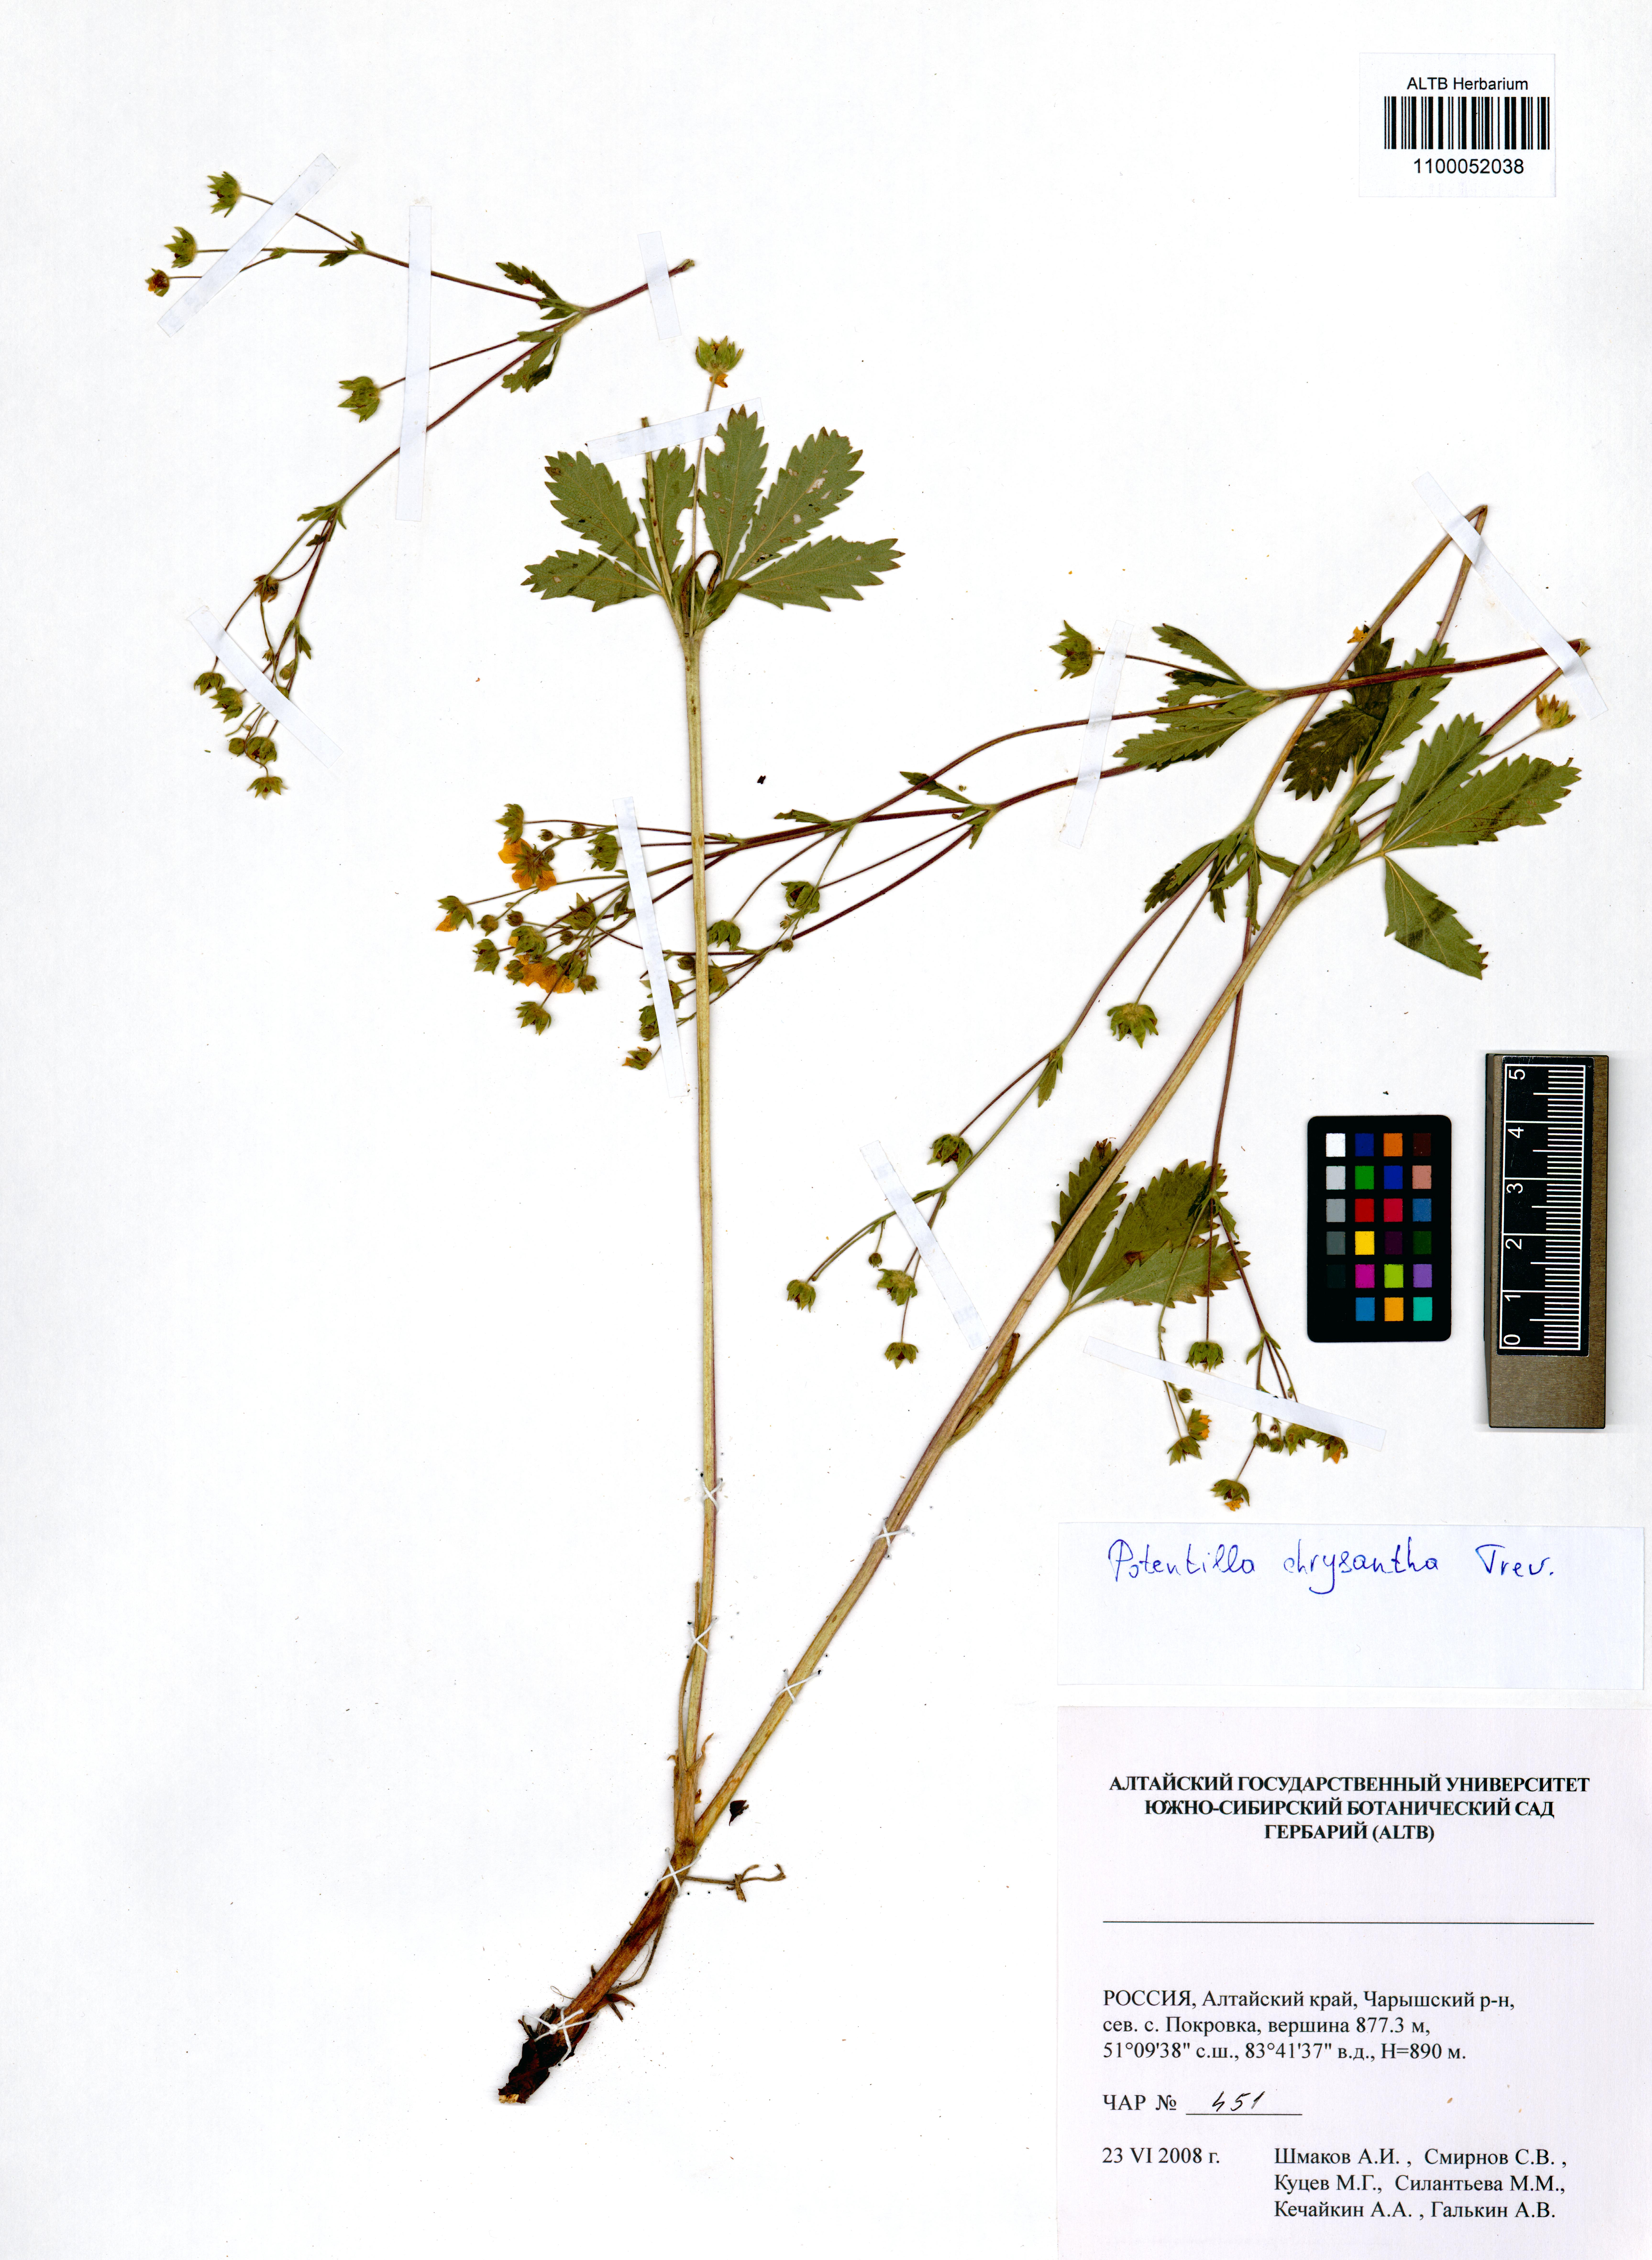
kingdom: Plantae
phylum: Tracheophyta
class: Magnoliopsida
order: Rosales
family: Rosaceae
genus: Potentilla
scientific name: Potentilla chrysantha
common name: Thuringian cinquefoil
